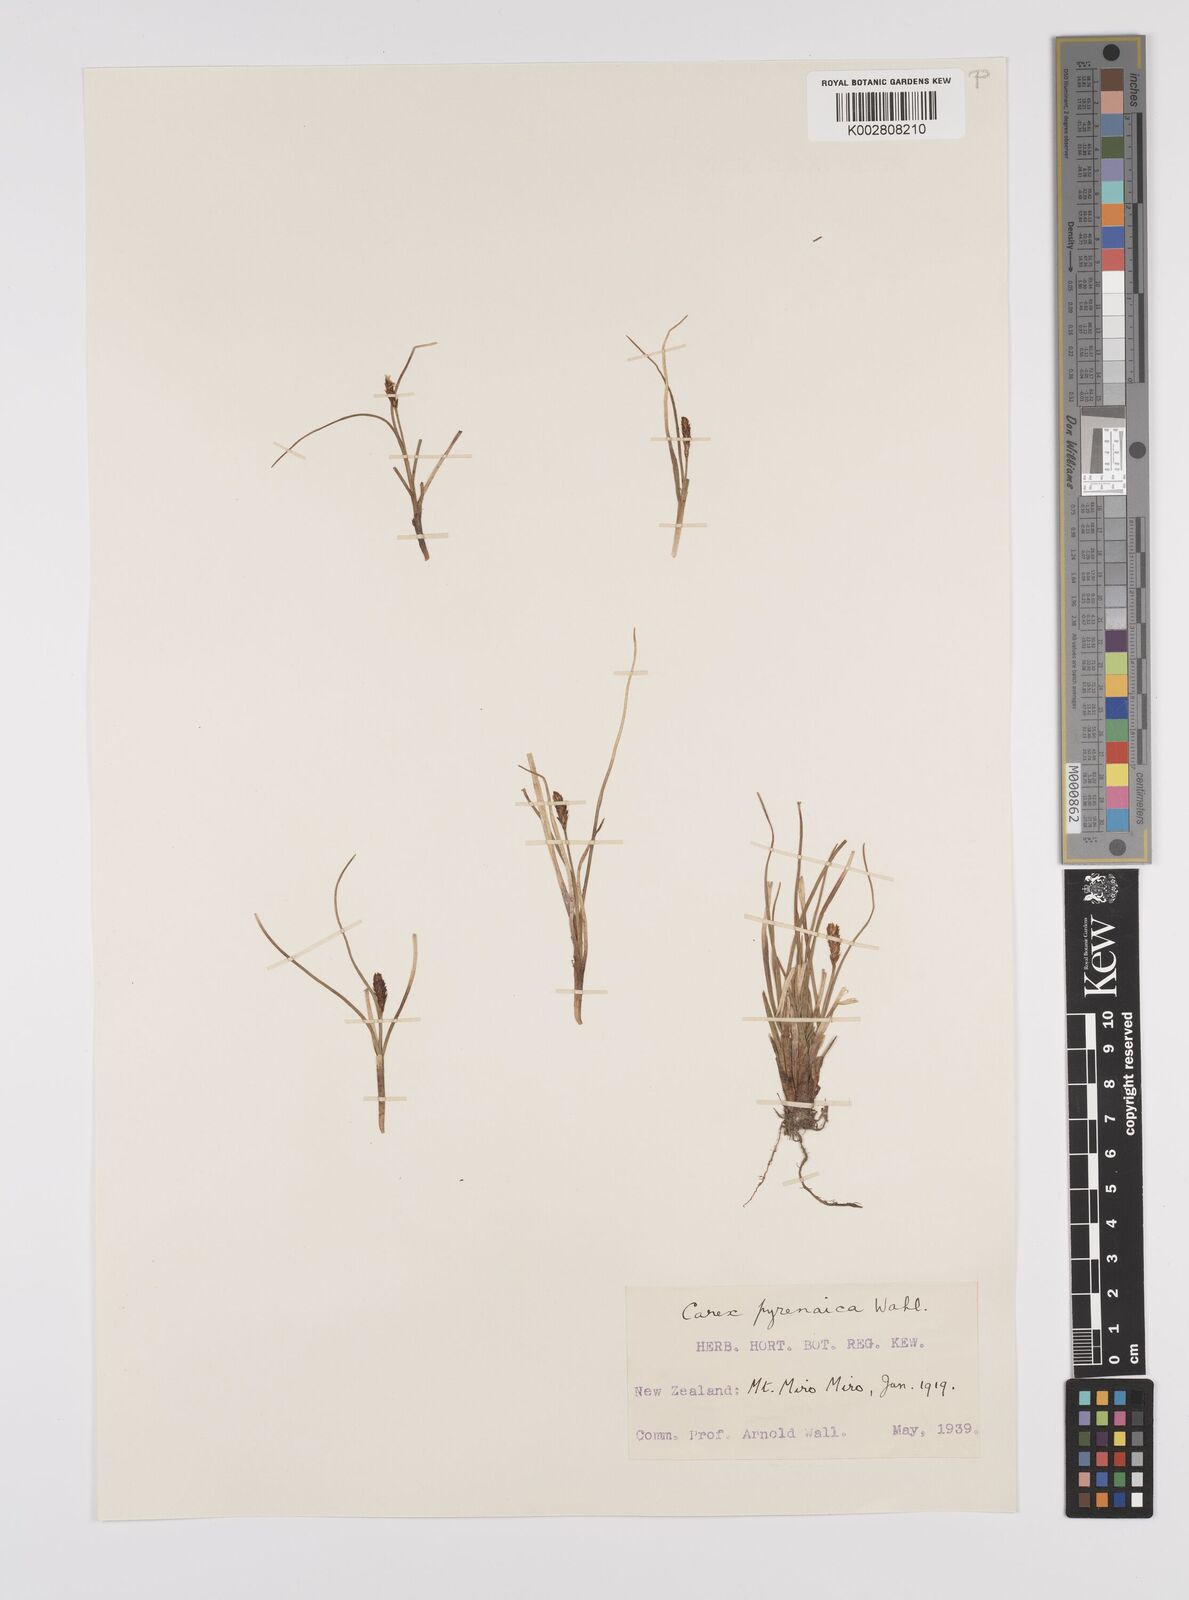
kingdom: Plantae
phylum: Tracheophyta
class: Liliopsida
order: Poales
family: Cyperaceae
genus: Carex
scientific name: Carex pyrenaica
